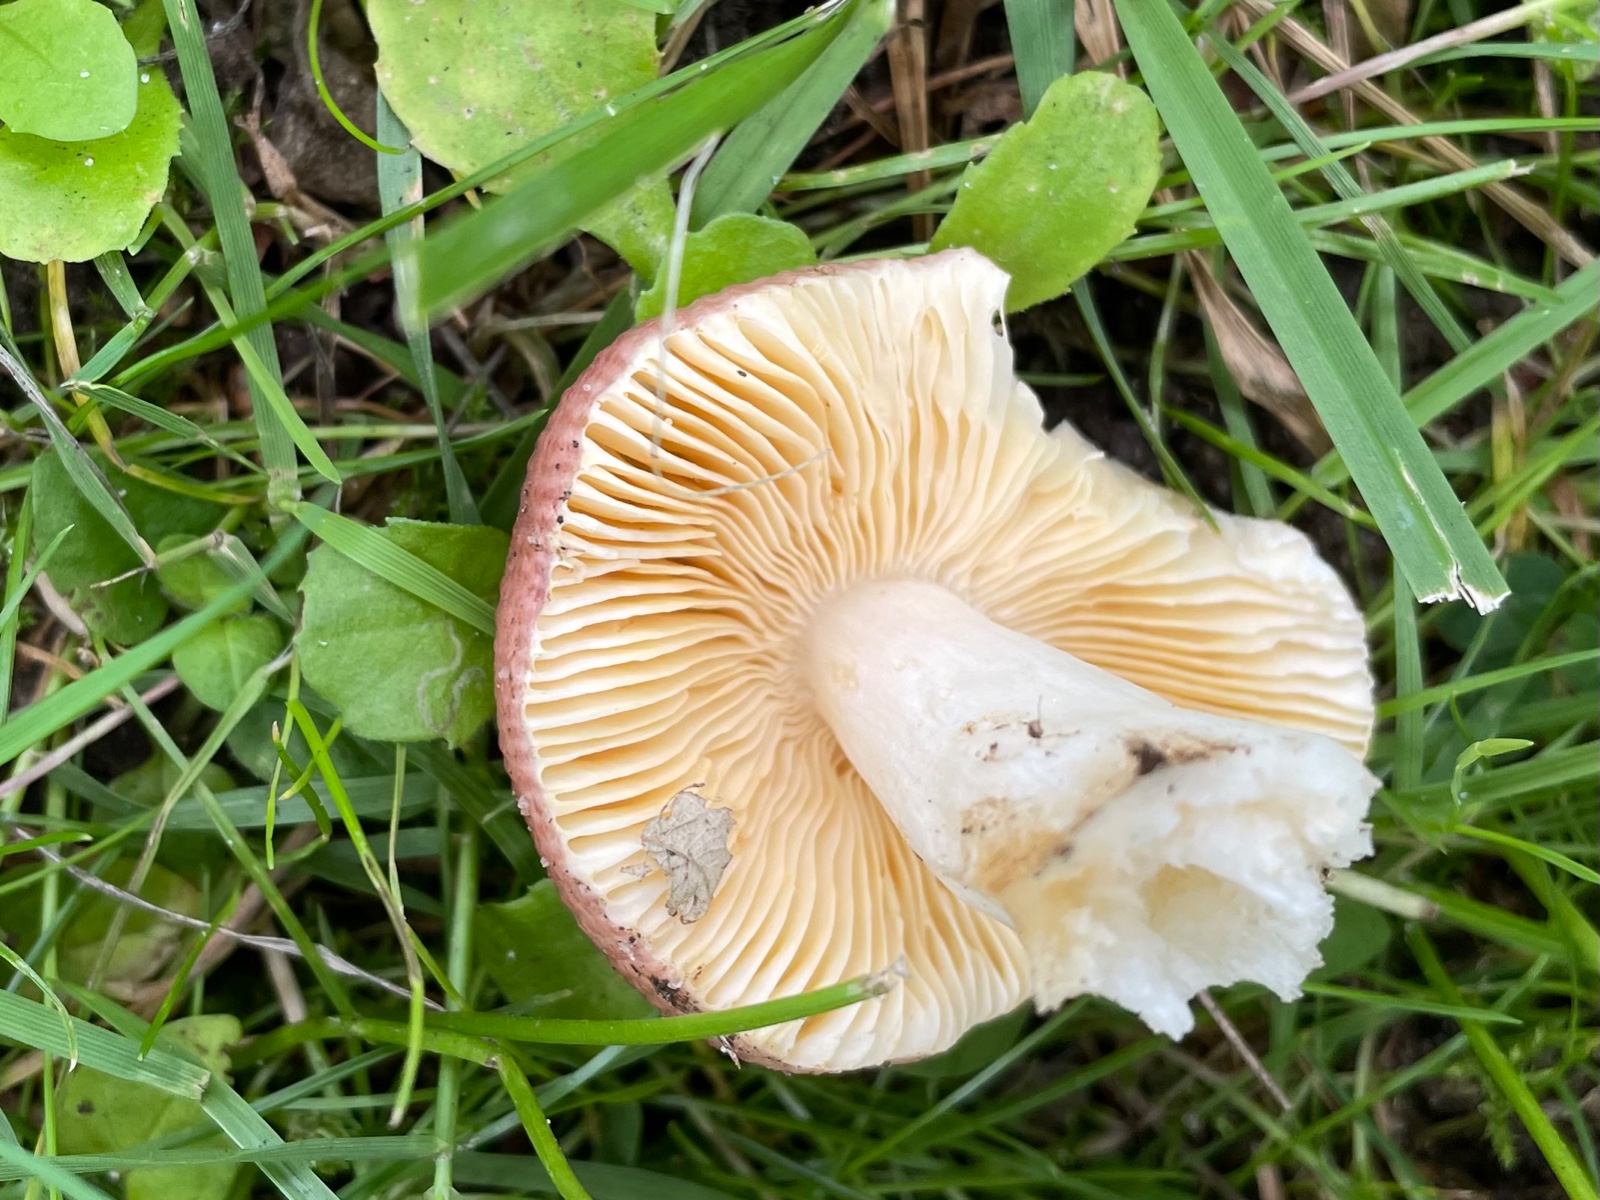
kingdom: Fungi
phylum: Basidiomycota
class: Agaricomycetes
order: Russulales
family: Russulaceae
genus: Russula
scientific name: Russula
